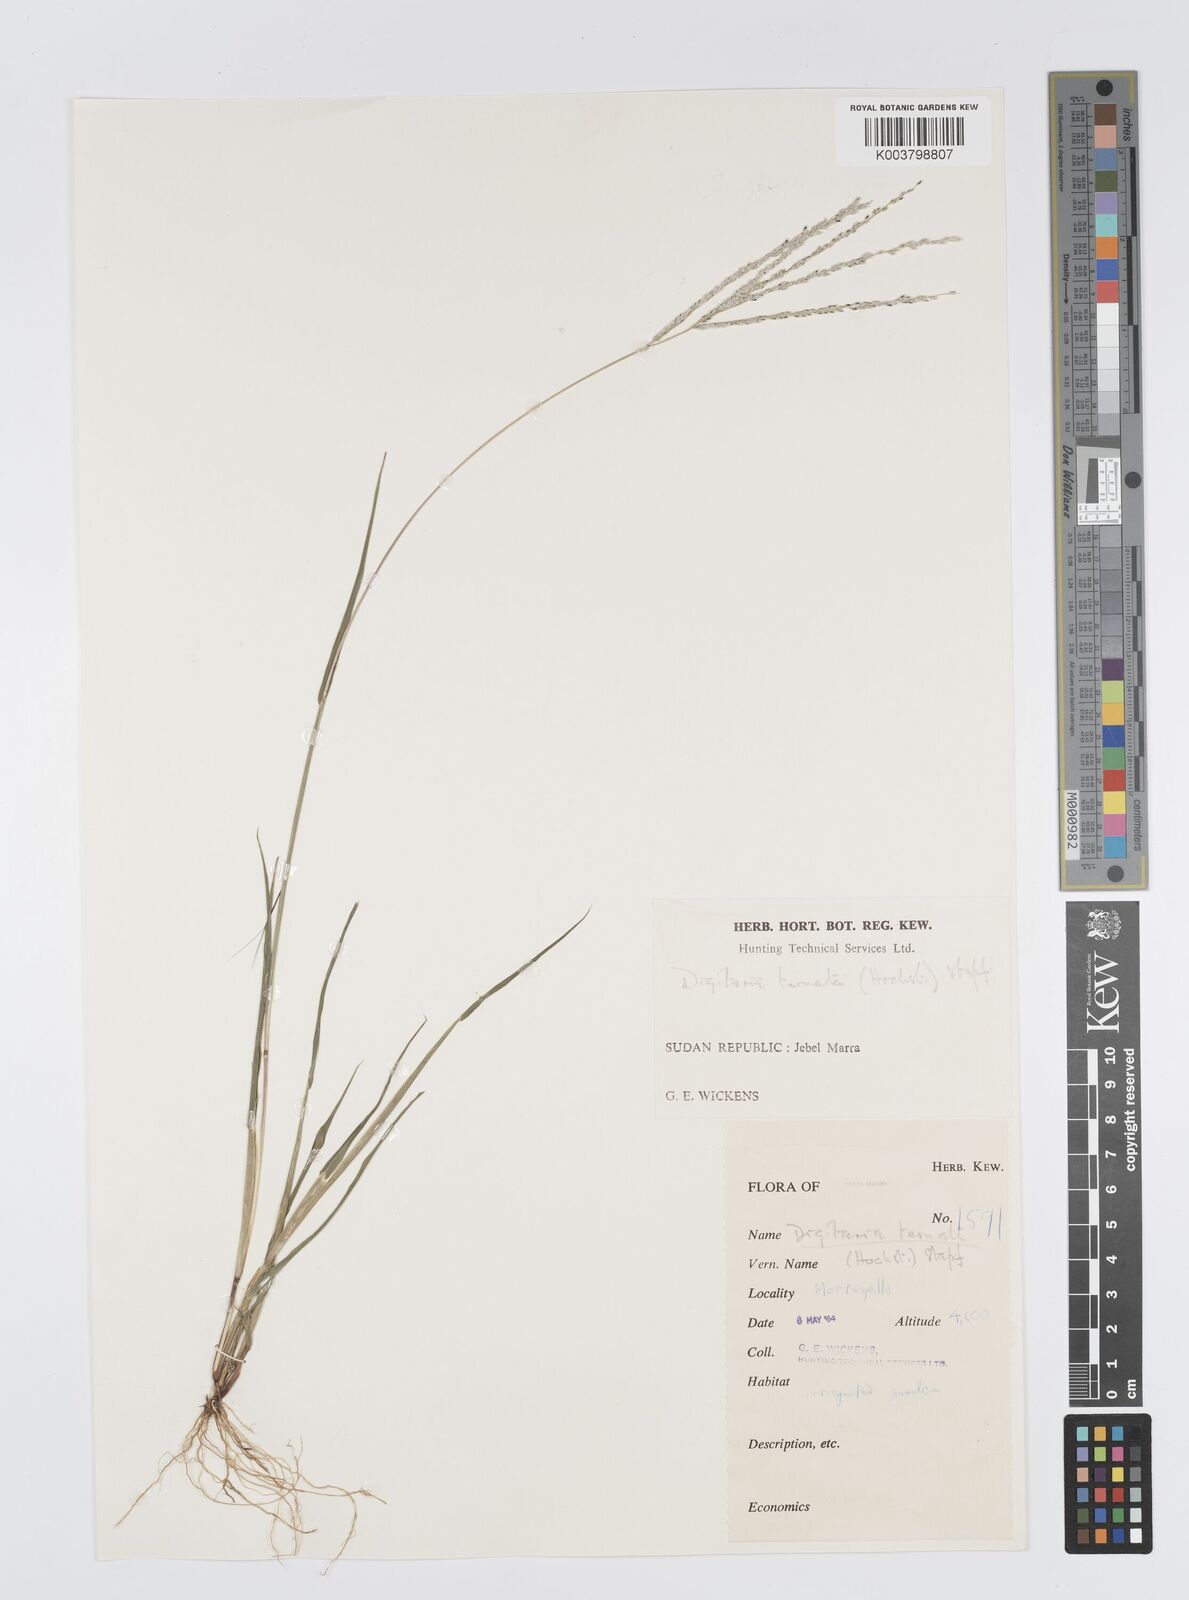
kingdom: Plantae
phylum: Tracheophyta
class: Liliopsida
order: Poales
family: Poaceae
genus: Digitaria
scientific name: Digitaria ternata
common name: Blackseed crabgrass
